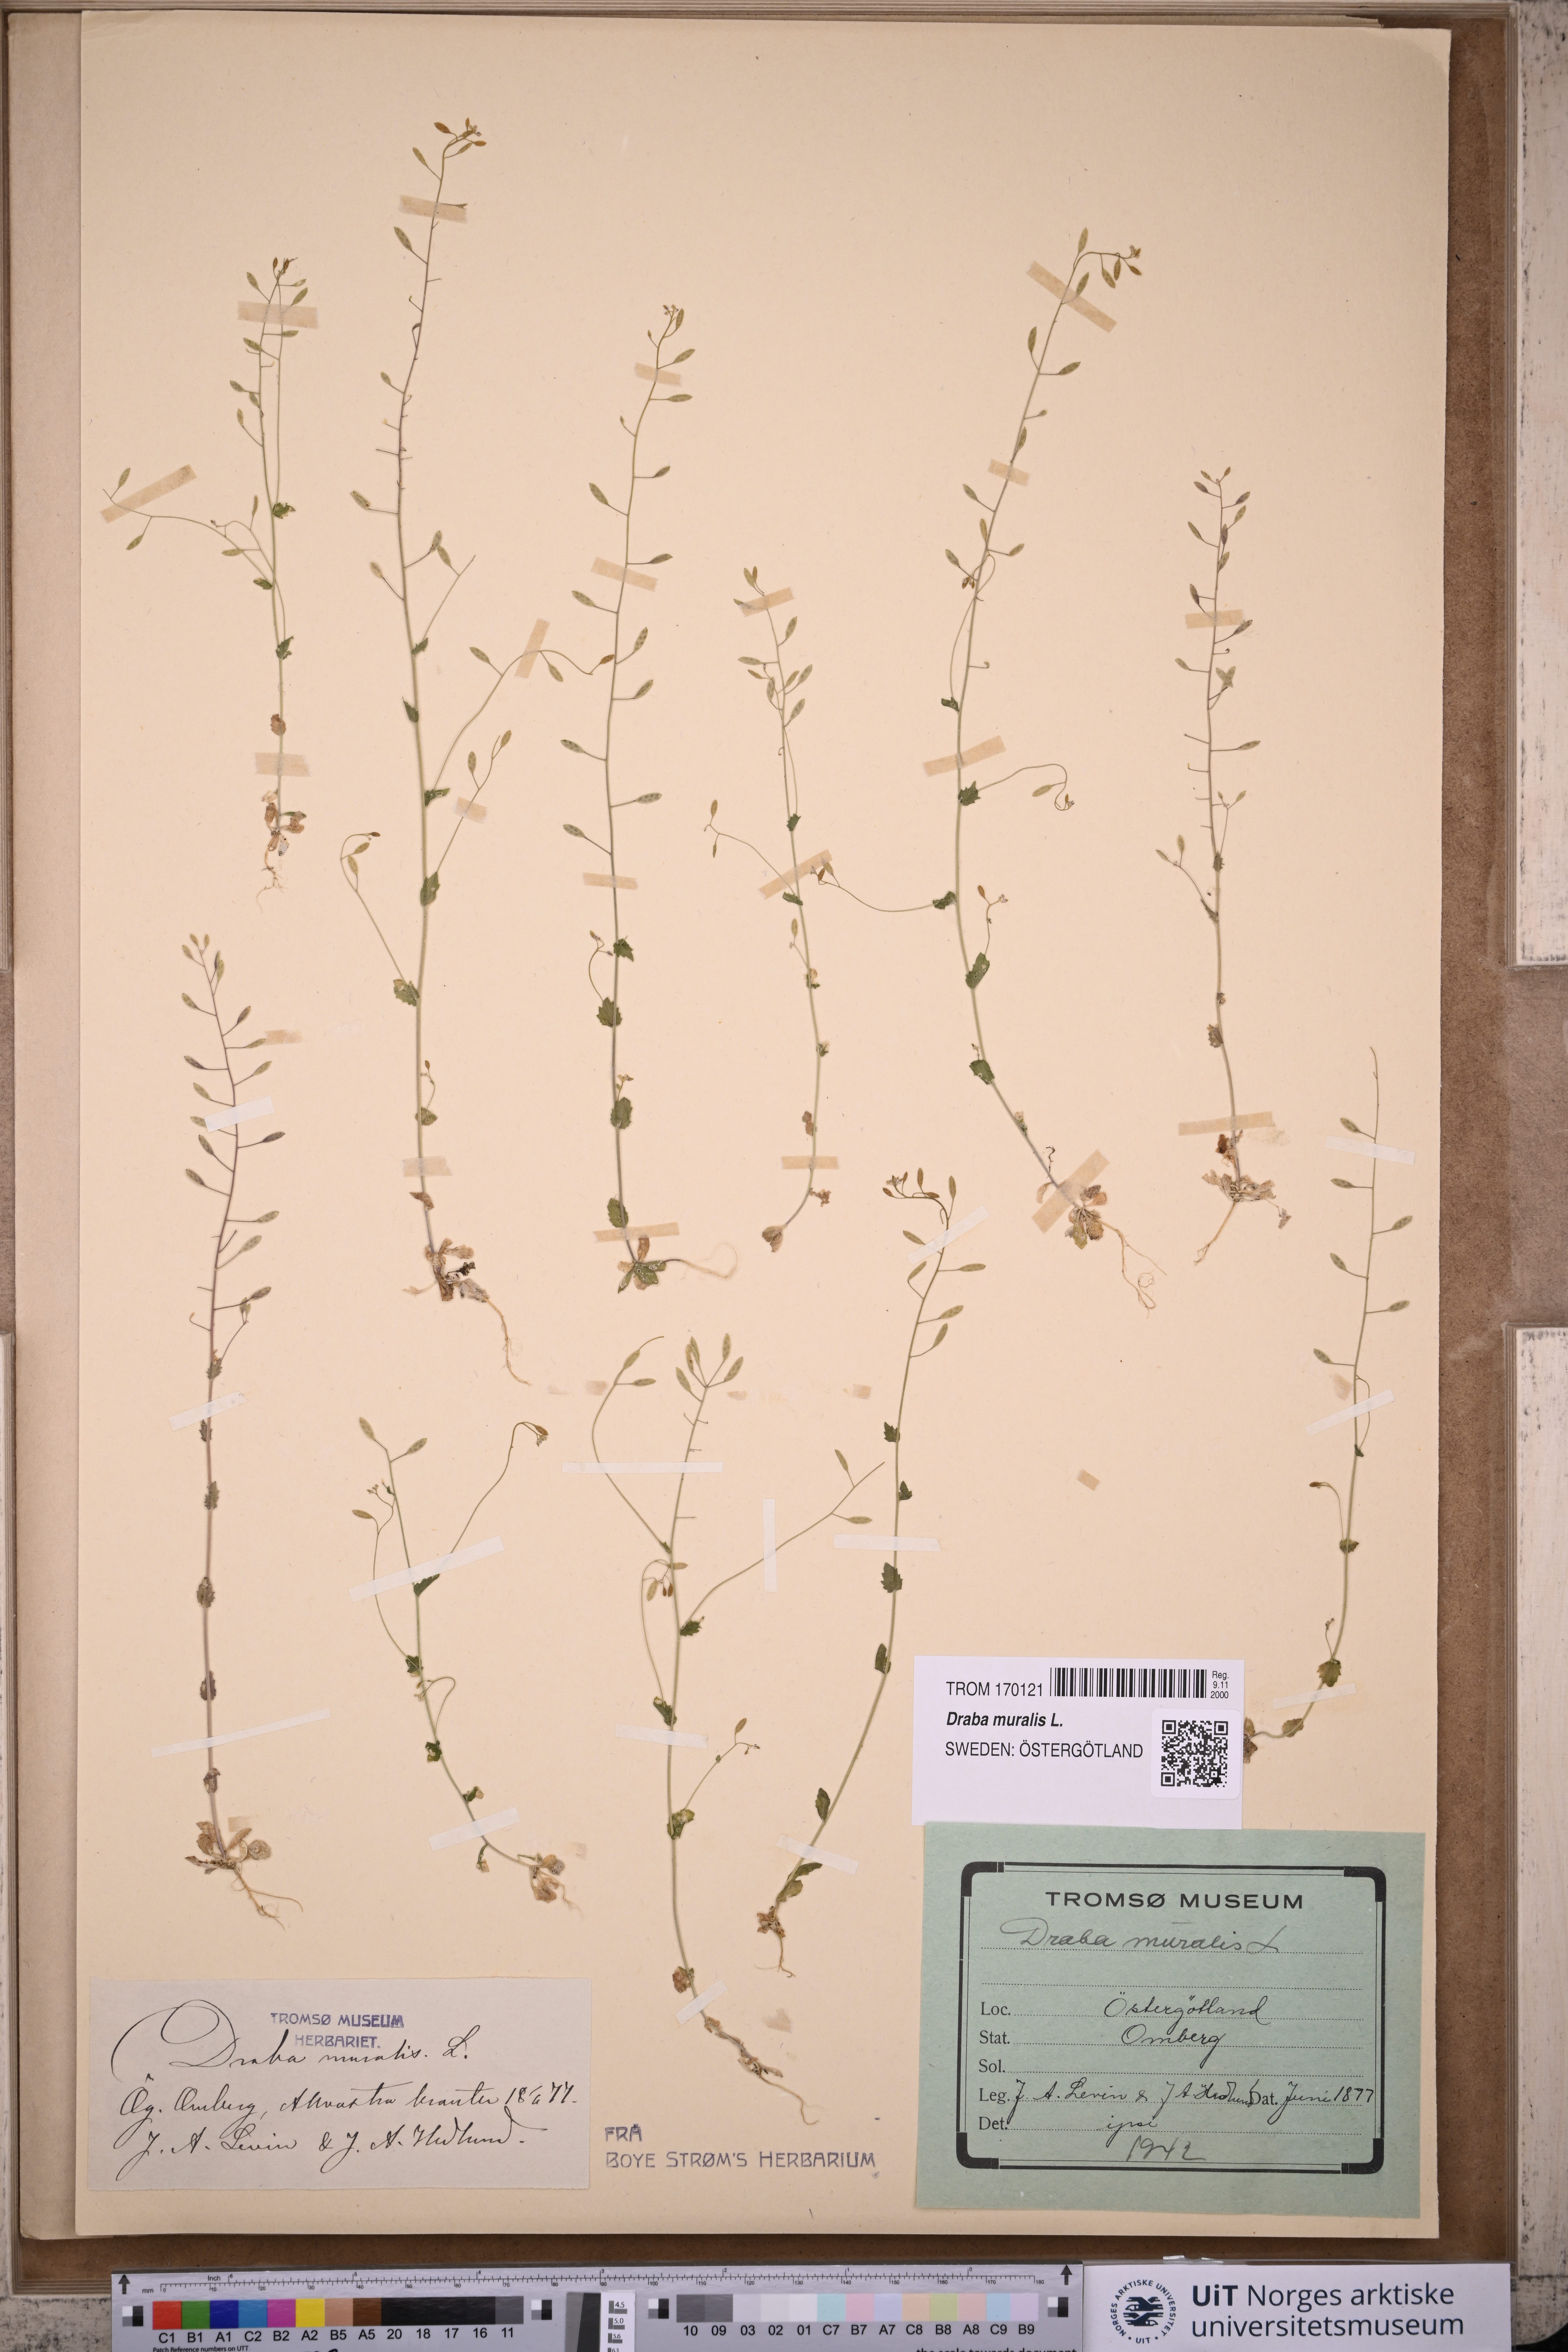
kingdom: Plantae
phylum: Tracheophyta
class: Magnoliopsida
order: Brassicales
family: Brassicaceae
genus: Drabella
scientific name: Drabella muralis
